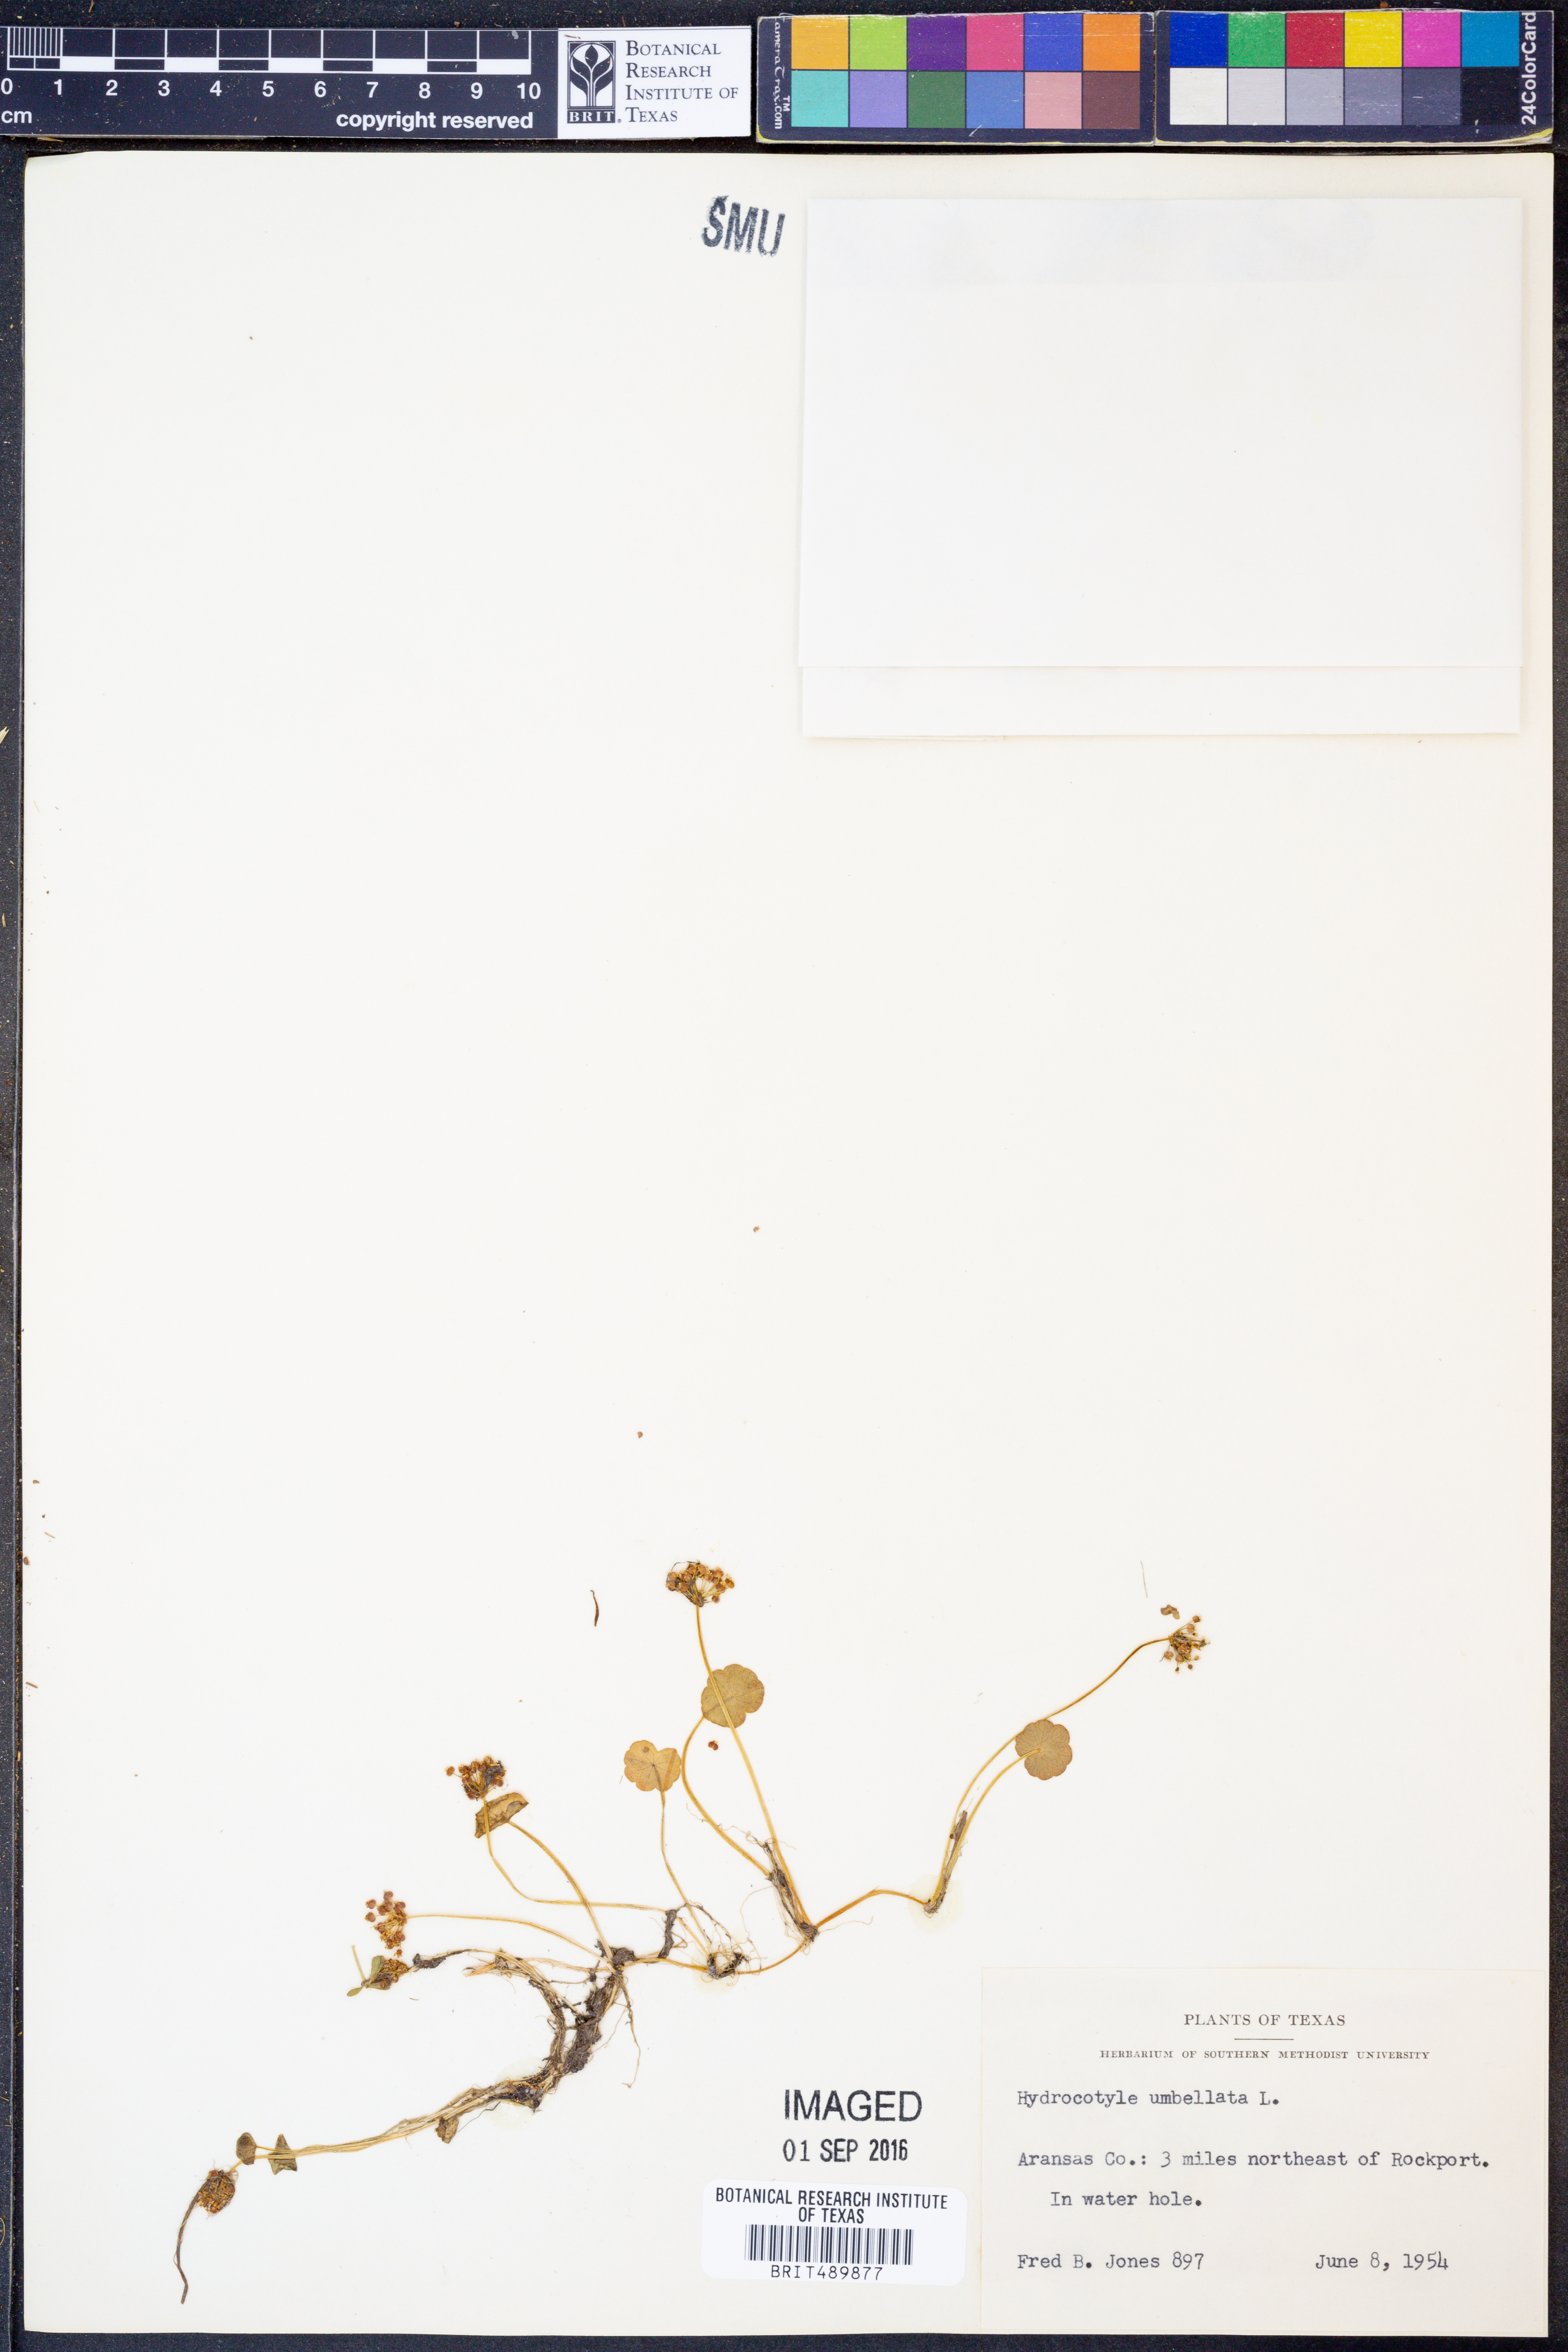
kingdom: Plantae
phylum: Tracheophyta
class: Magnoliopsida
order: Apiales
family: Araliaceae
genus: Hydrocotyle
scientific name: Hydrocotyle umbellata
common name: Water pennywort
